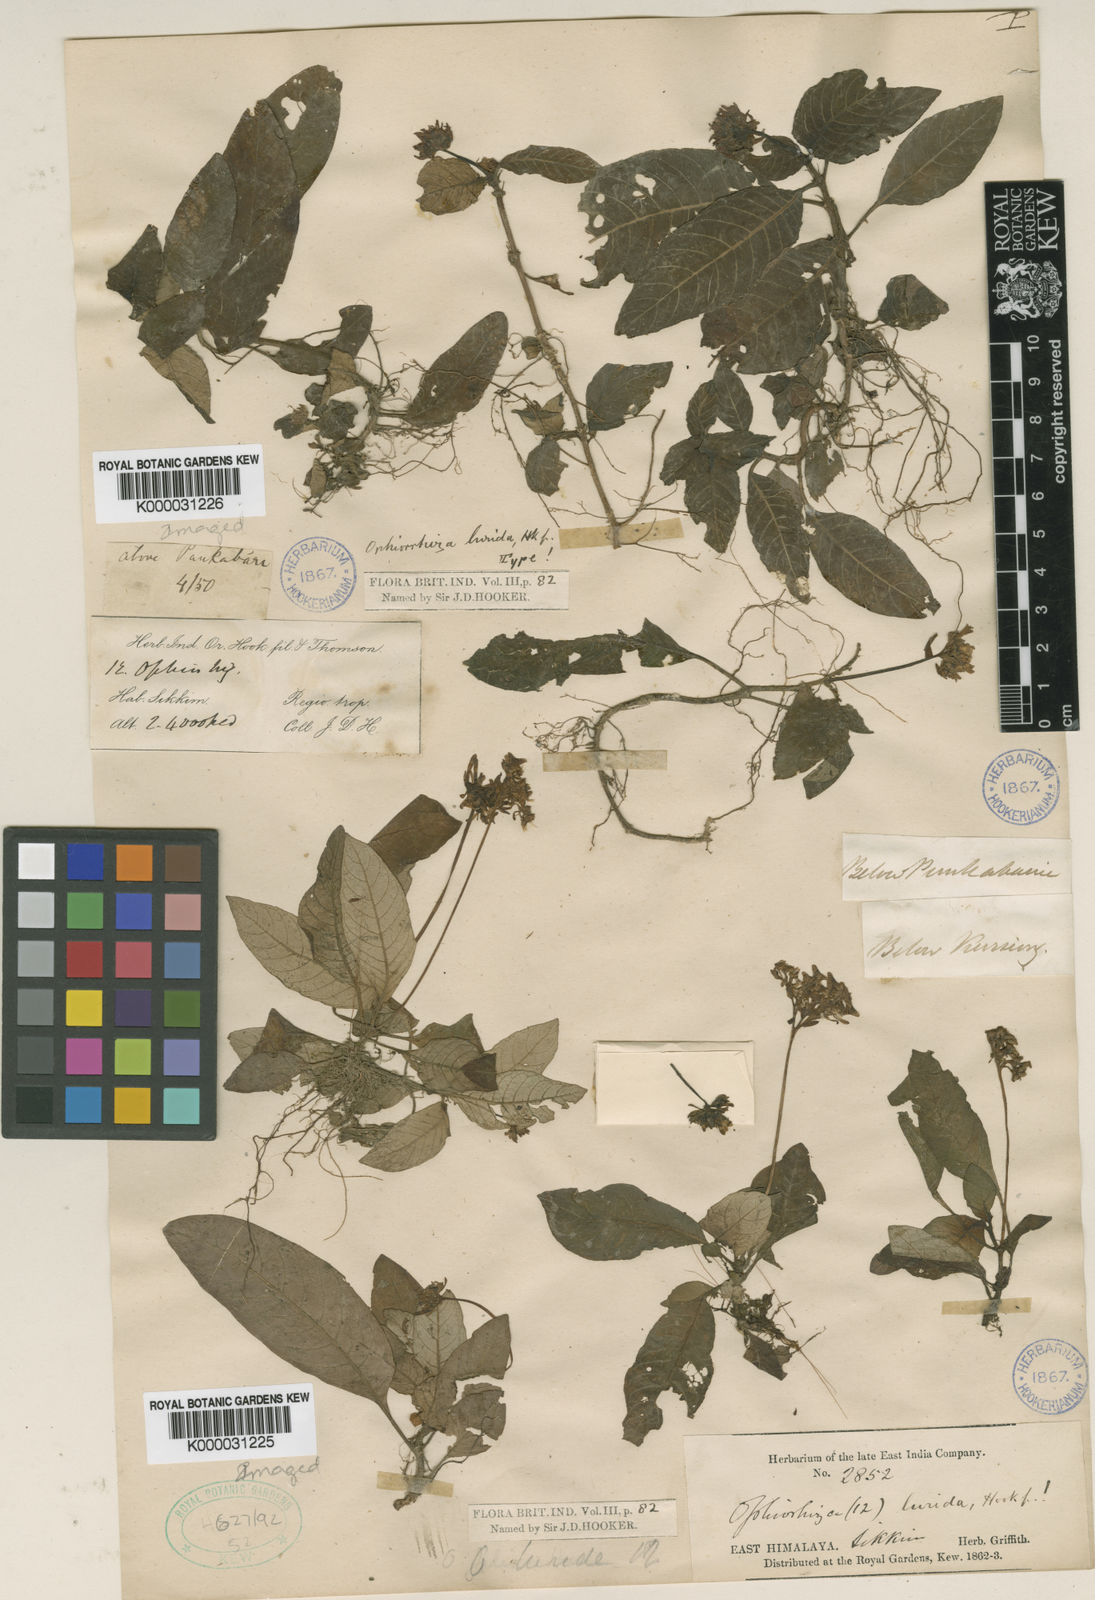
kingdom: Plantae
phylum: Tracheophyta
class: Magnoliopsida
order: Gentianales
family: Rubiaceae
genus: Ophiorrhiza
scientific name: Ophiorrhiza lurida
